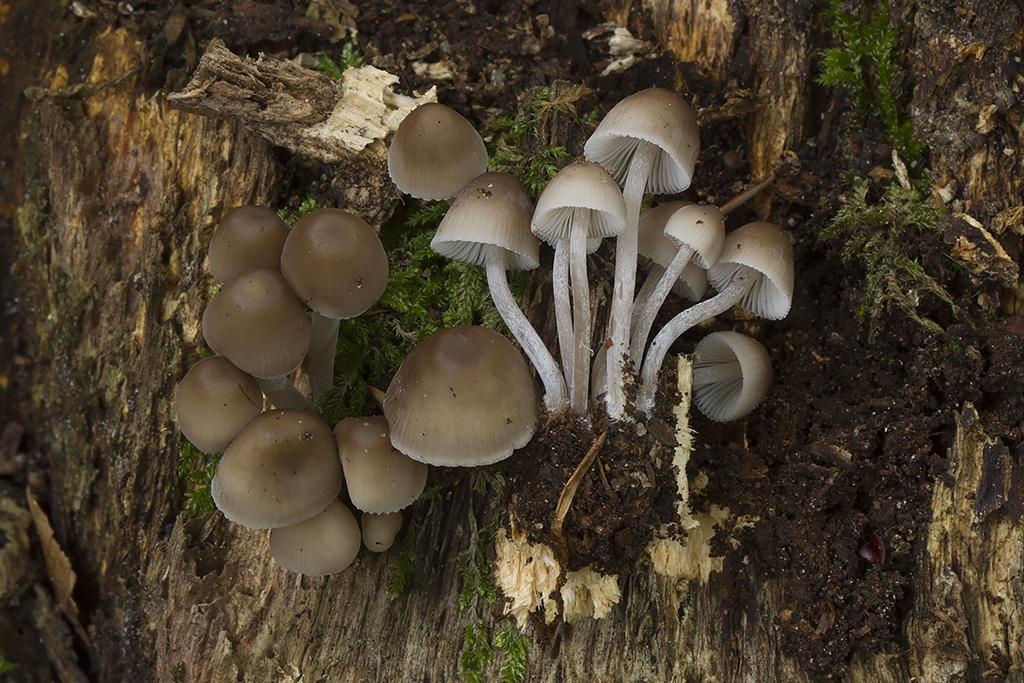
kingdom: Fungi
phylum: Basidiomycota
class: Agaricomycetes
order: Agaricales
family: Mycenaceae
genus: Mycena
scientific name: Mycena inclinata
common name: nikkende huesvamp
